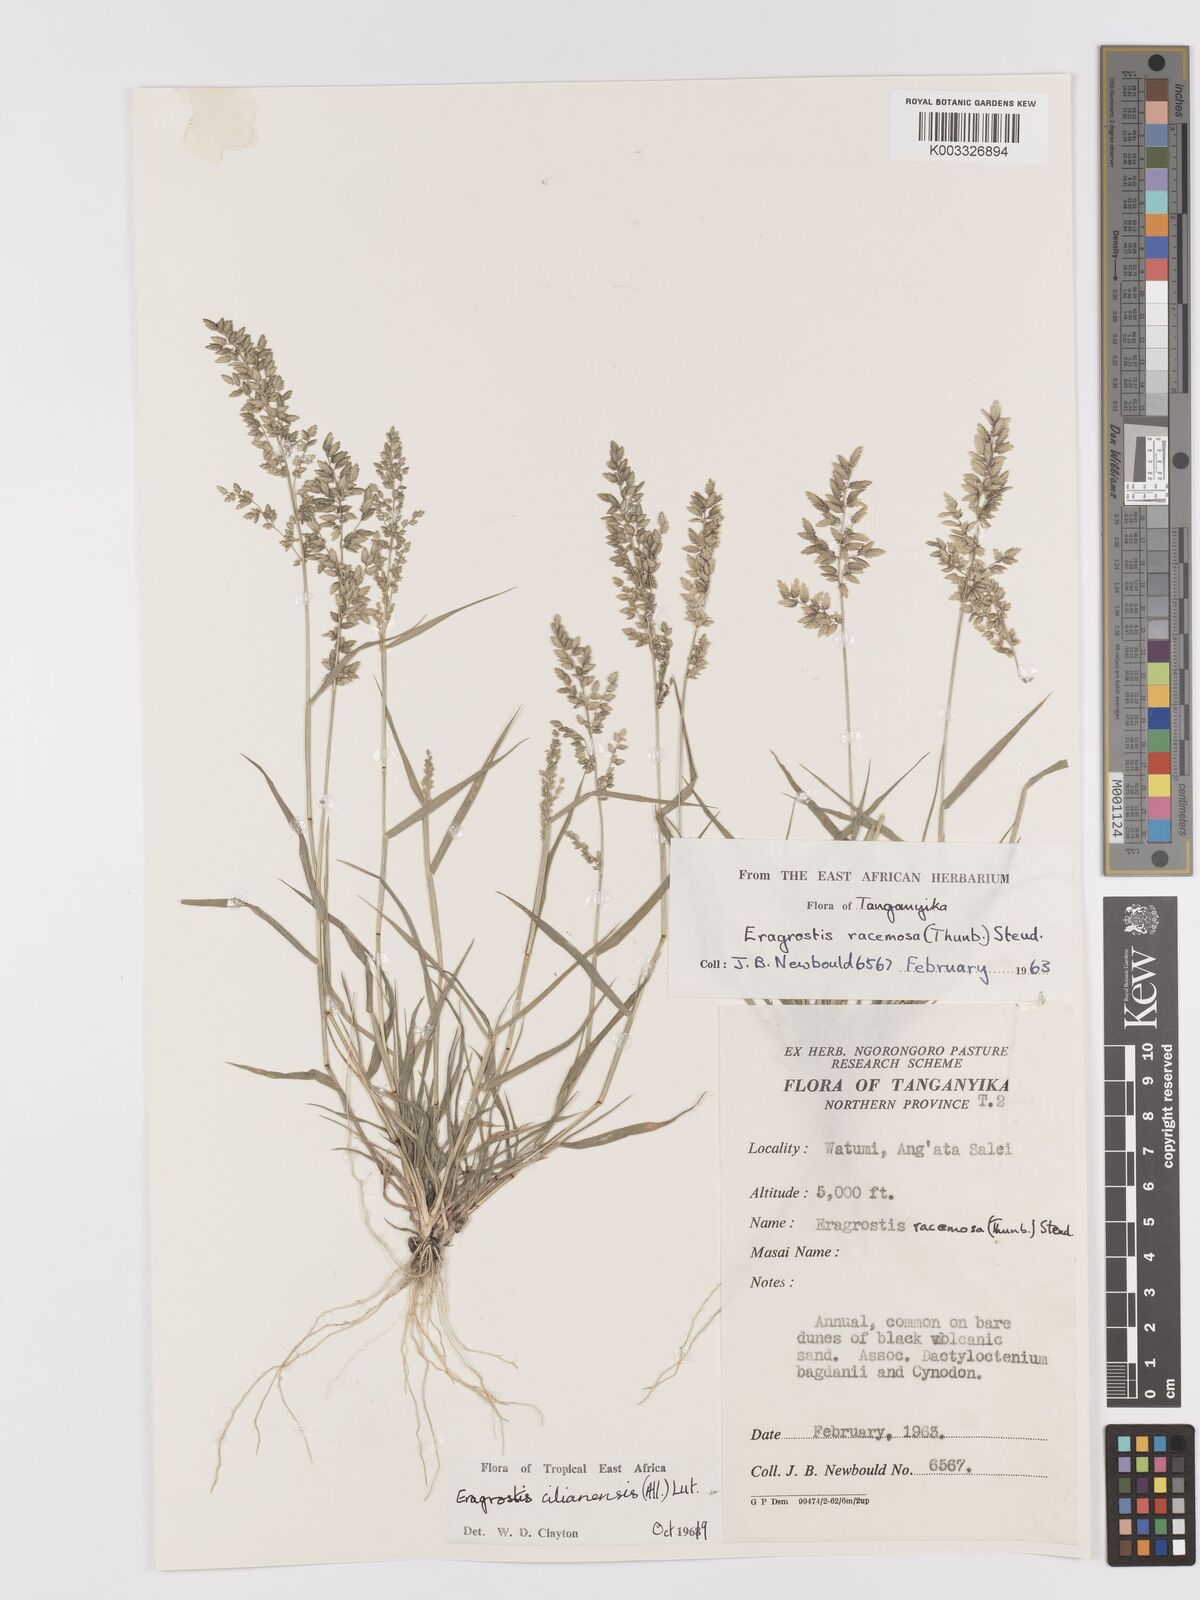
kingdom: Plantae
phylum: Tracheophyta
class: Liliopsida
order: Poales
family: Poaceae
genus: Eragrostis
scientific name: Eragrostis cilianensis
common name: Stinkgrass
